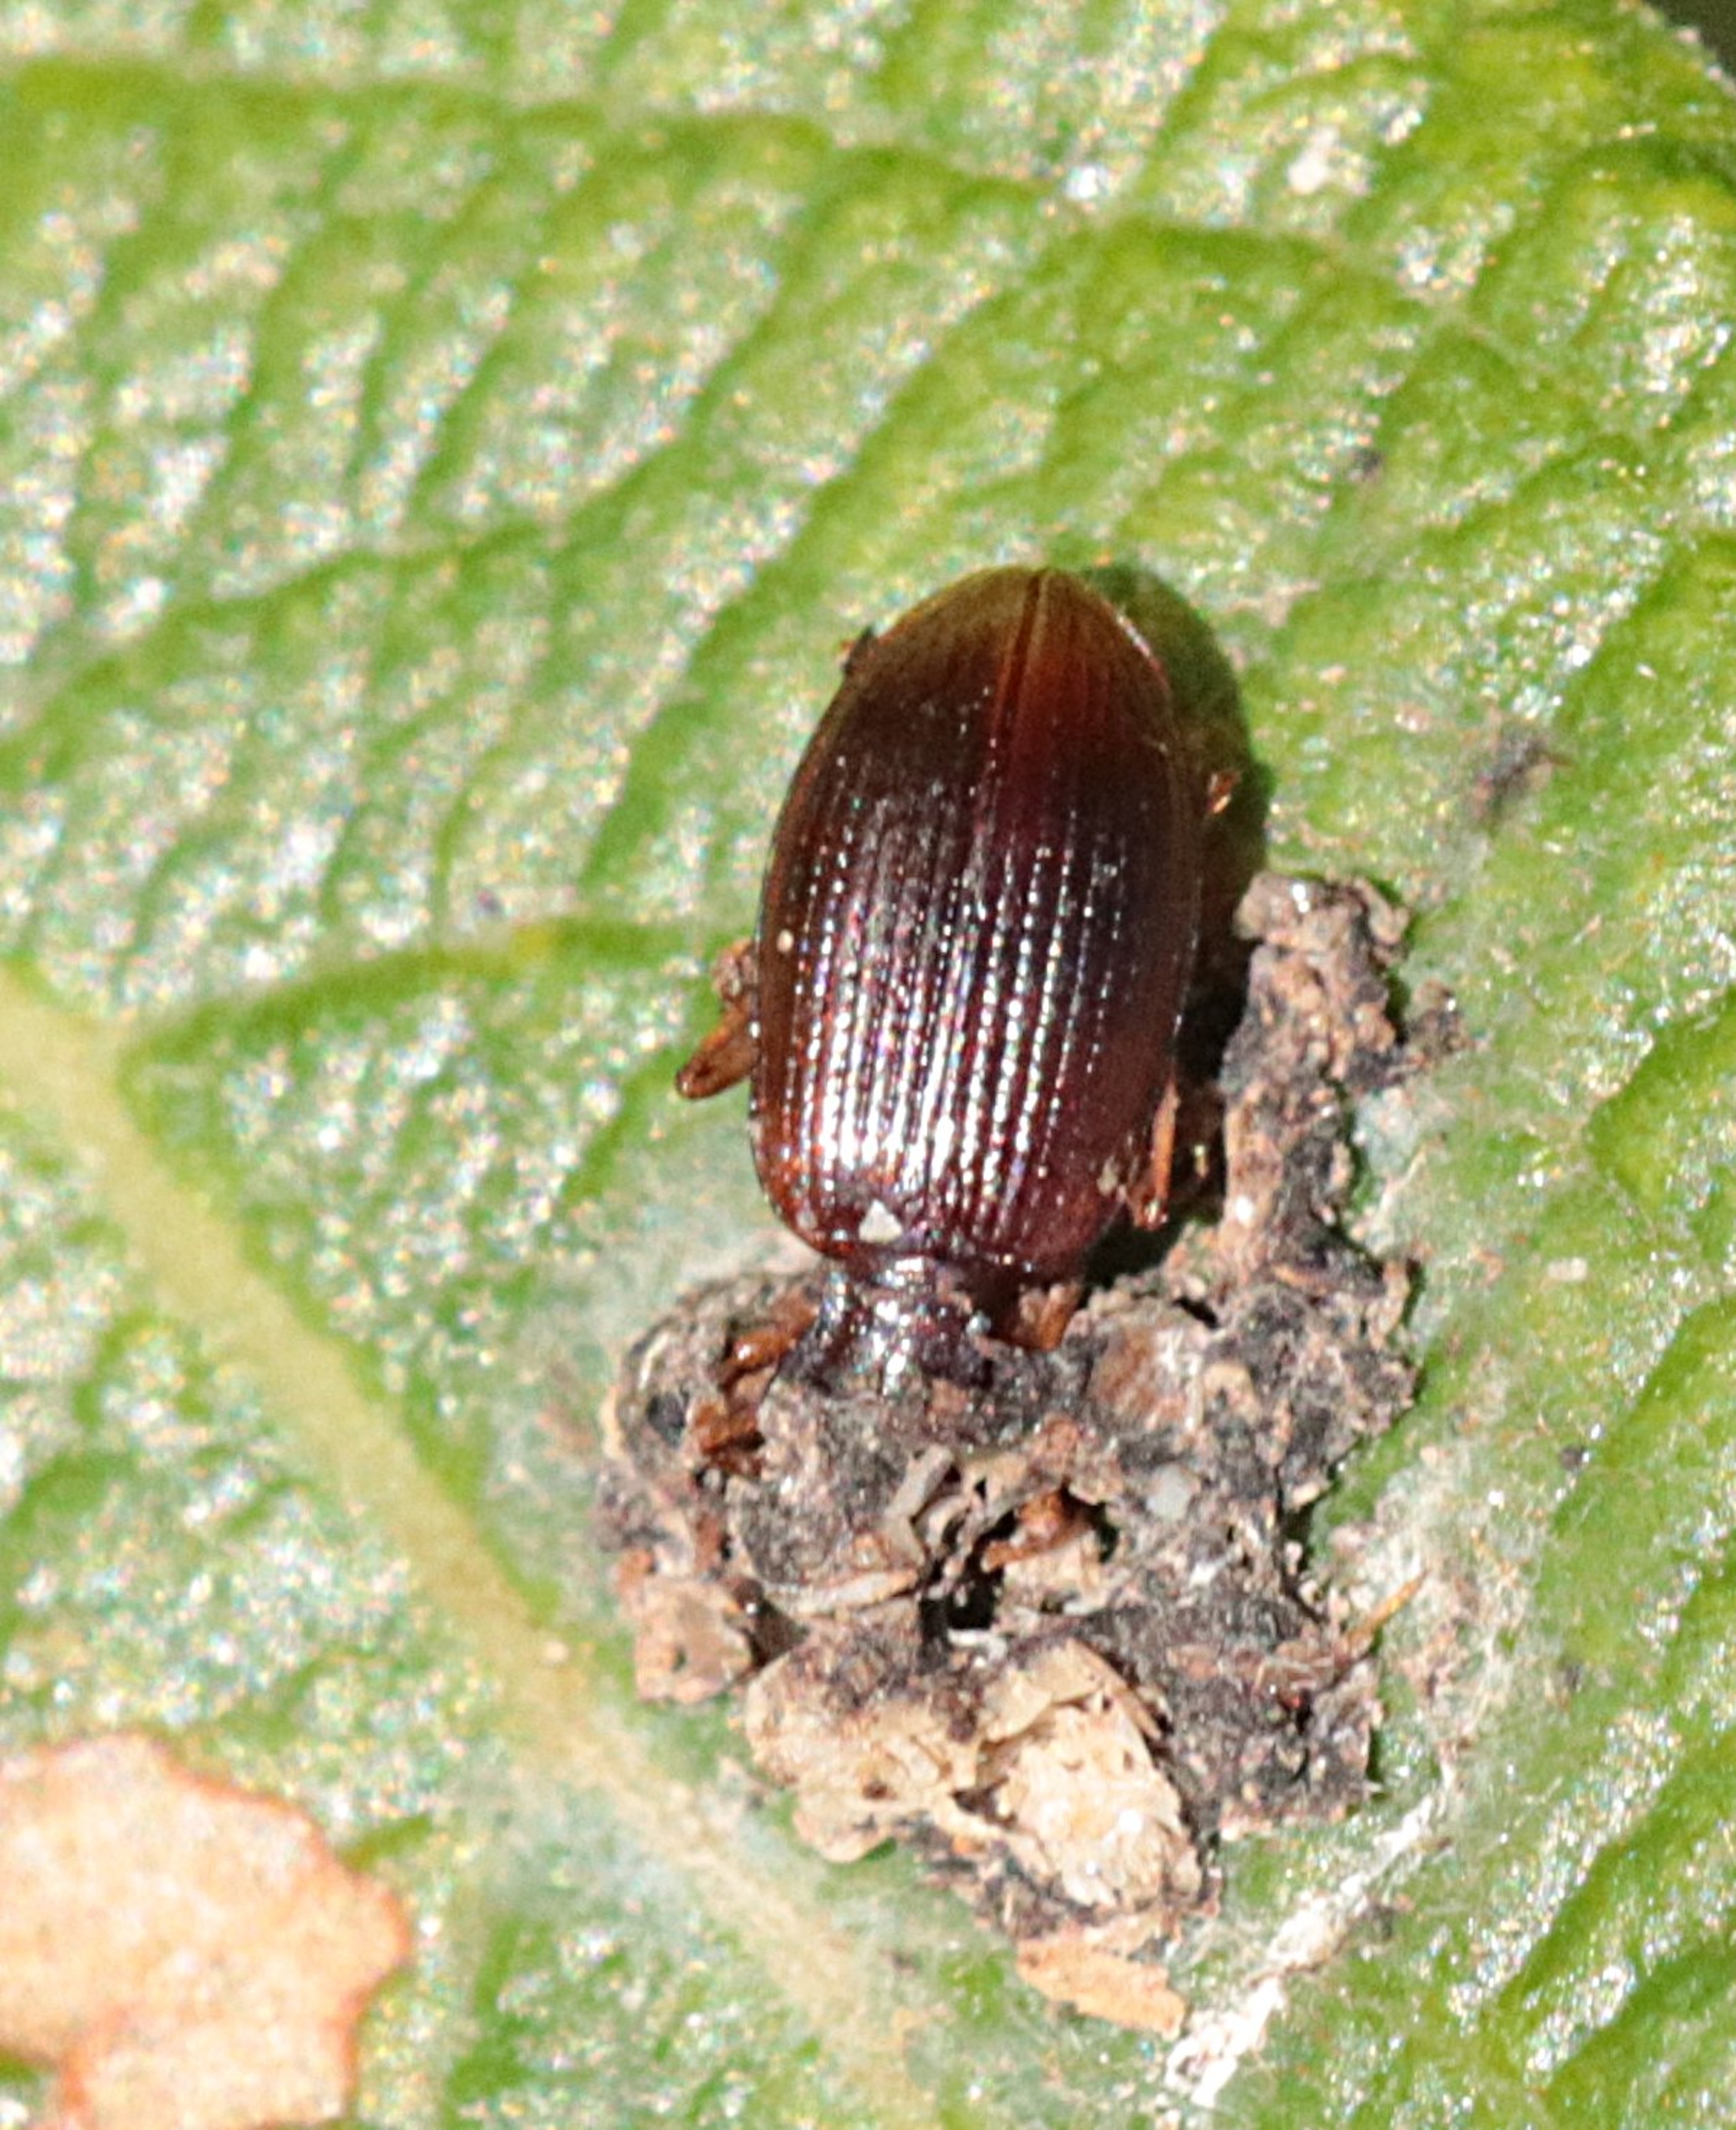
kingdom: Animalia
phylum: Arthropoda
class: Insecta
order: Coleoptera
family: Carabidae
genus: Oxypselaphus
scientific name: Oxypselaphus obscurus
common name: Rødbrun kvikløber
